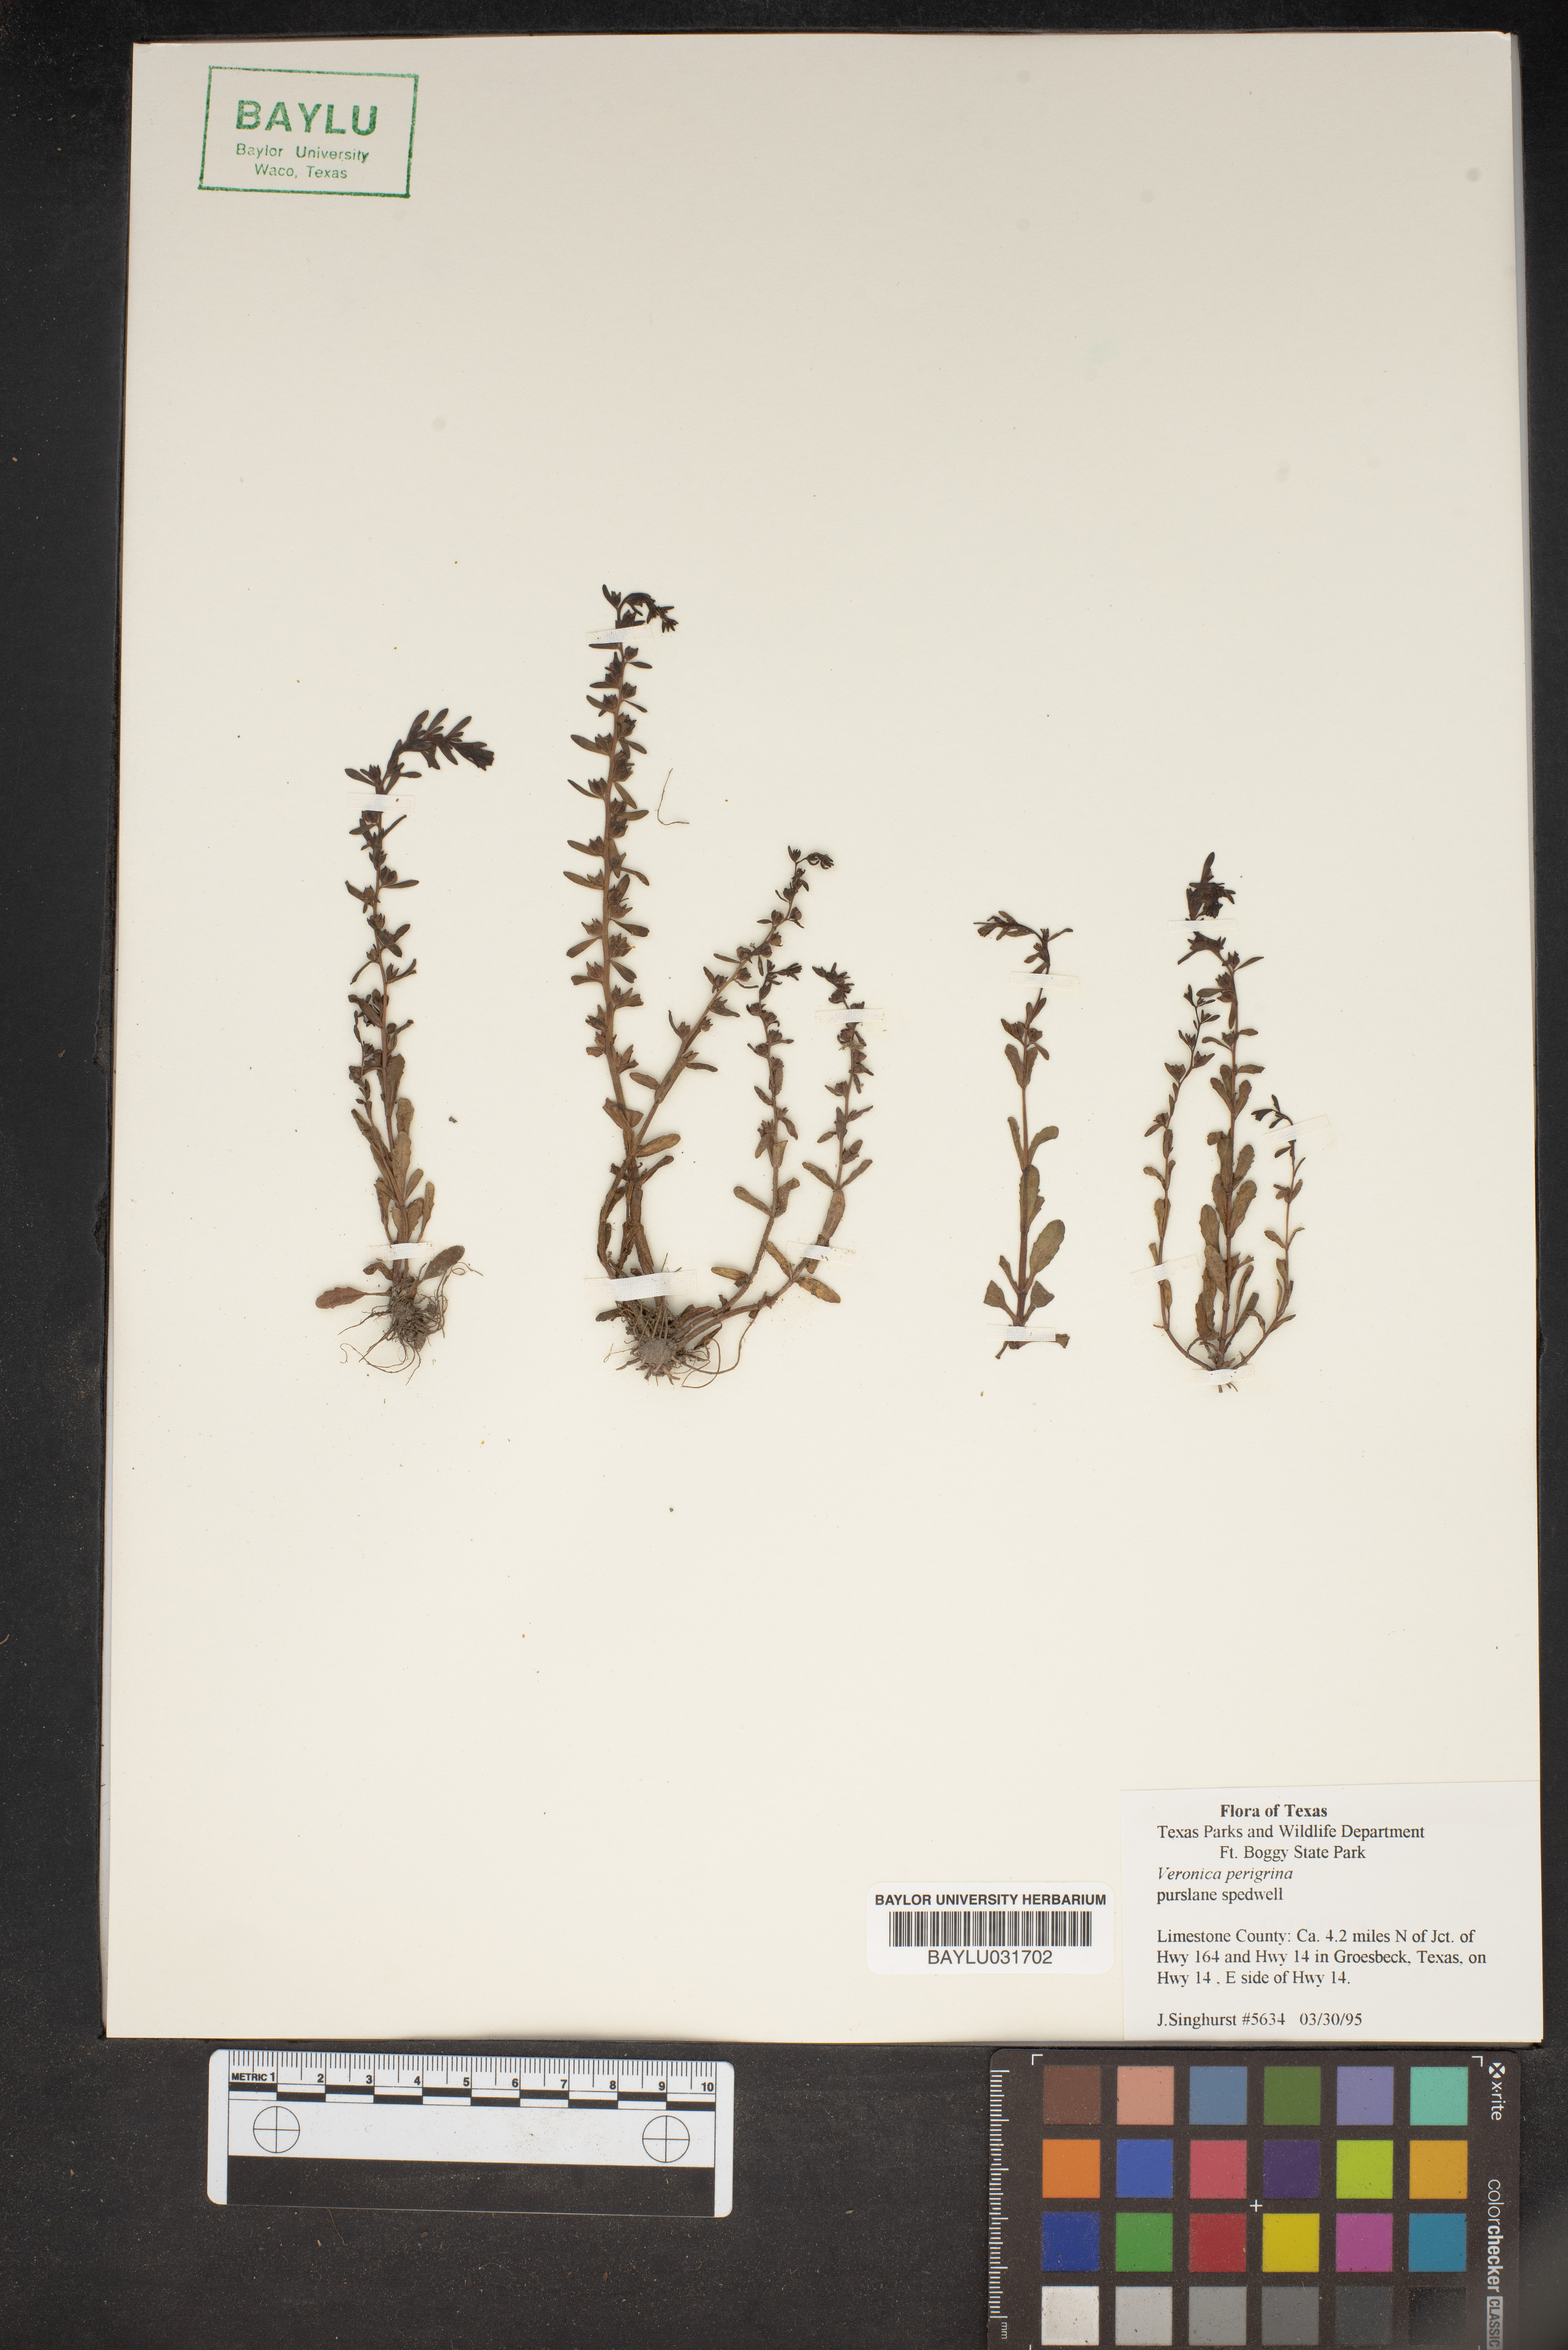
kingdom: Plantae
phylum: Tracheophyta
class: Magnoliopsida
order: Lamiales
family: Plantaginaceae
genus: Veronica
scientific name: Veronica peregrina
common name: Neckweed
